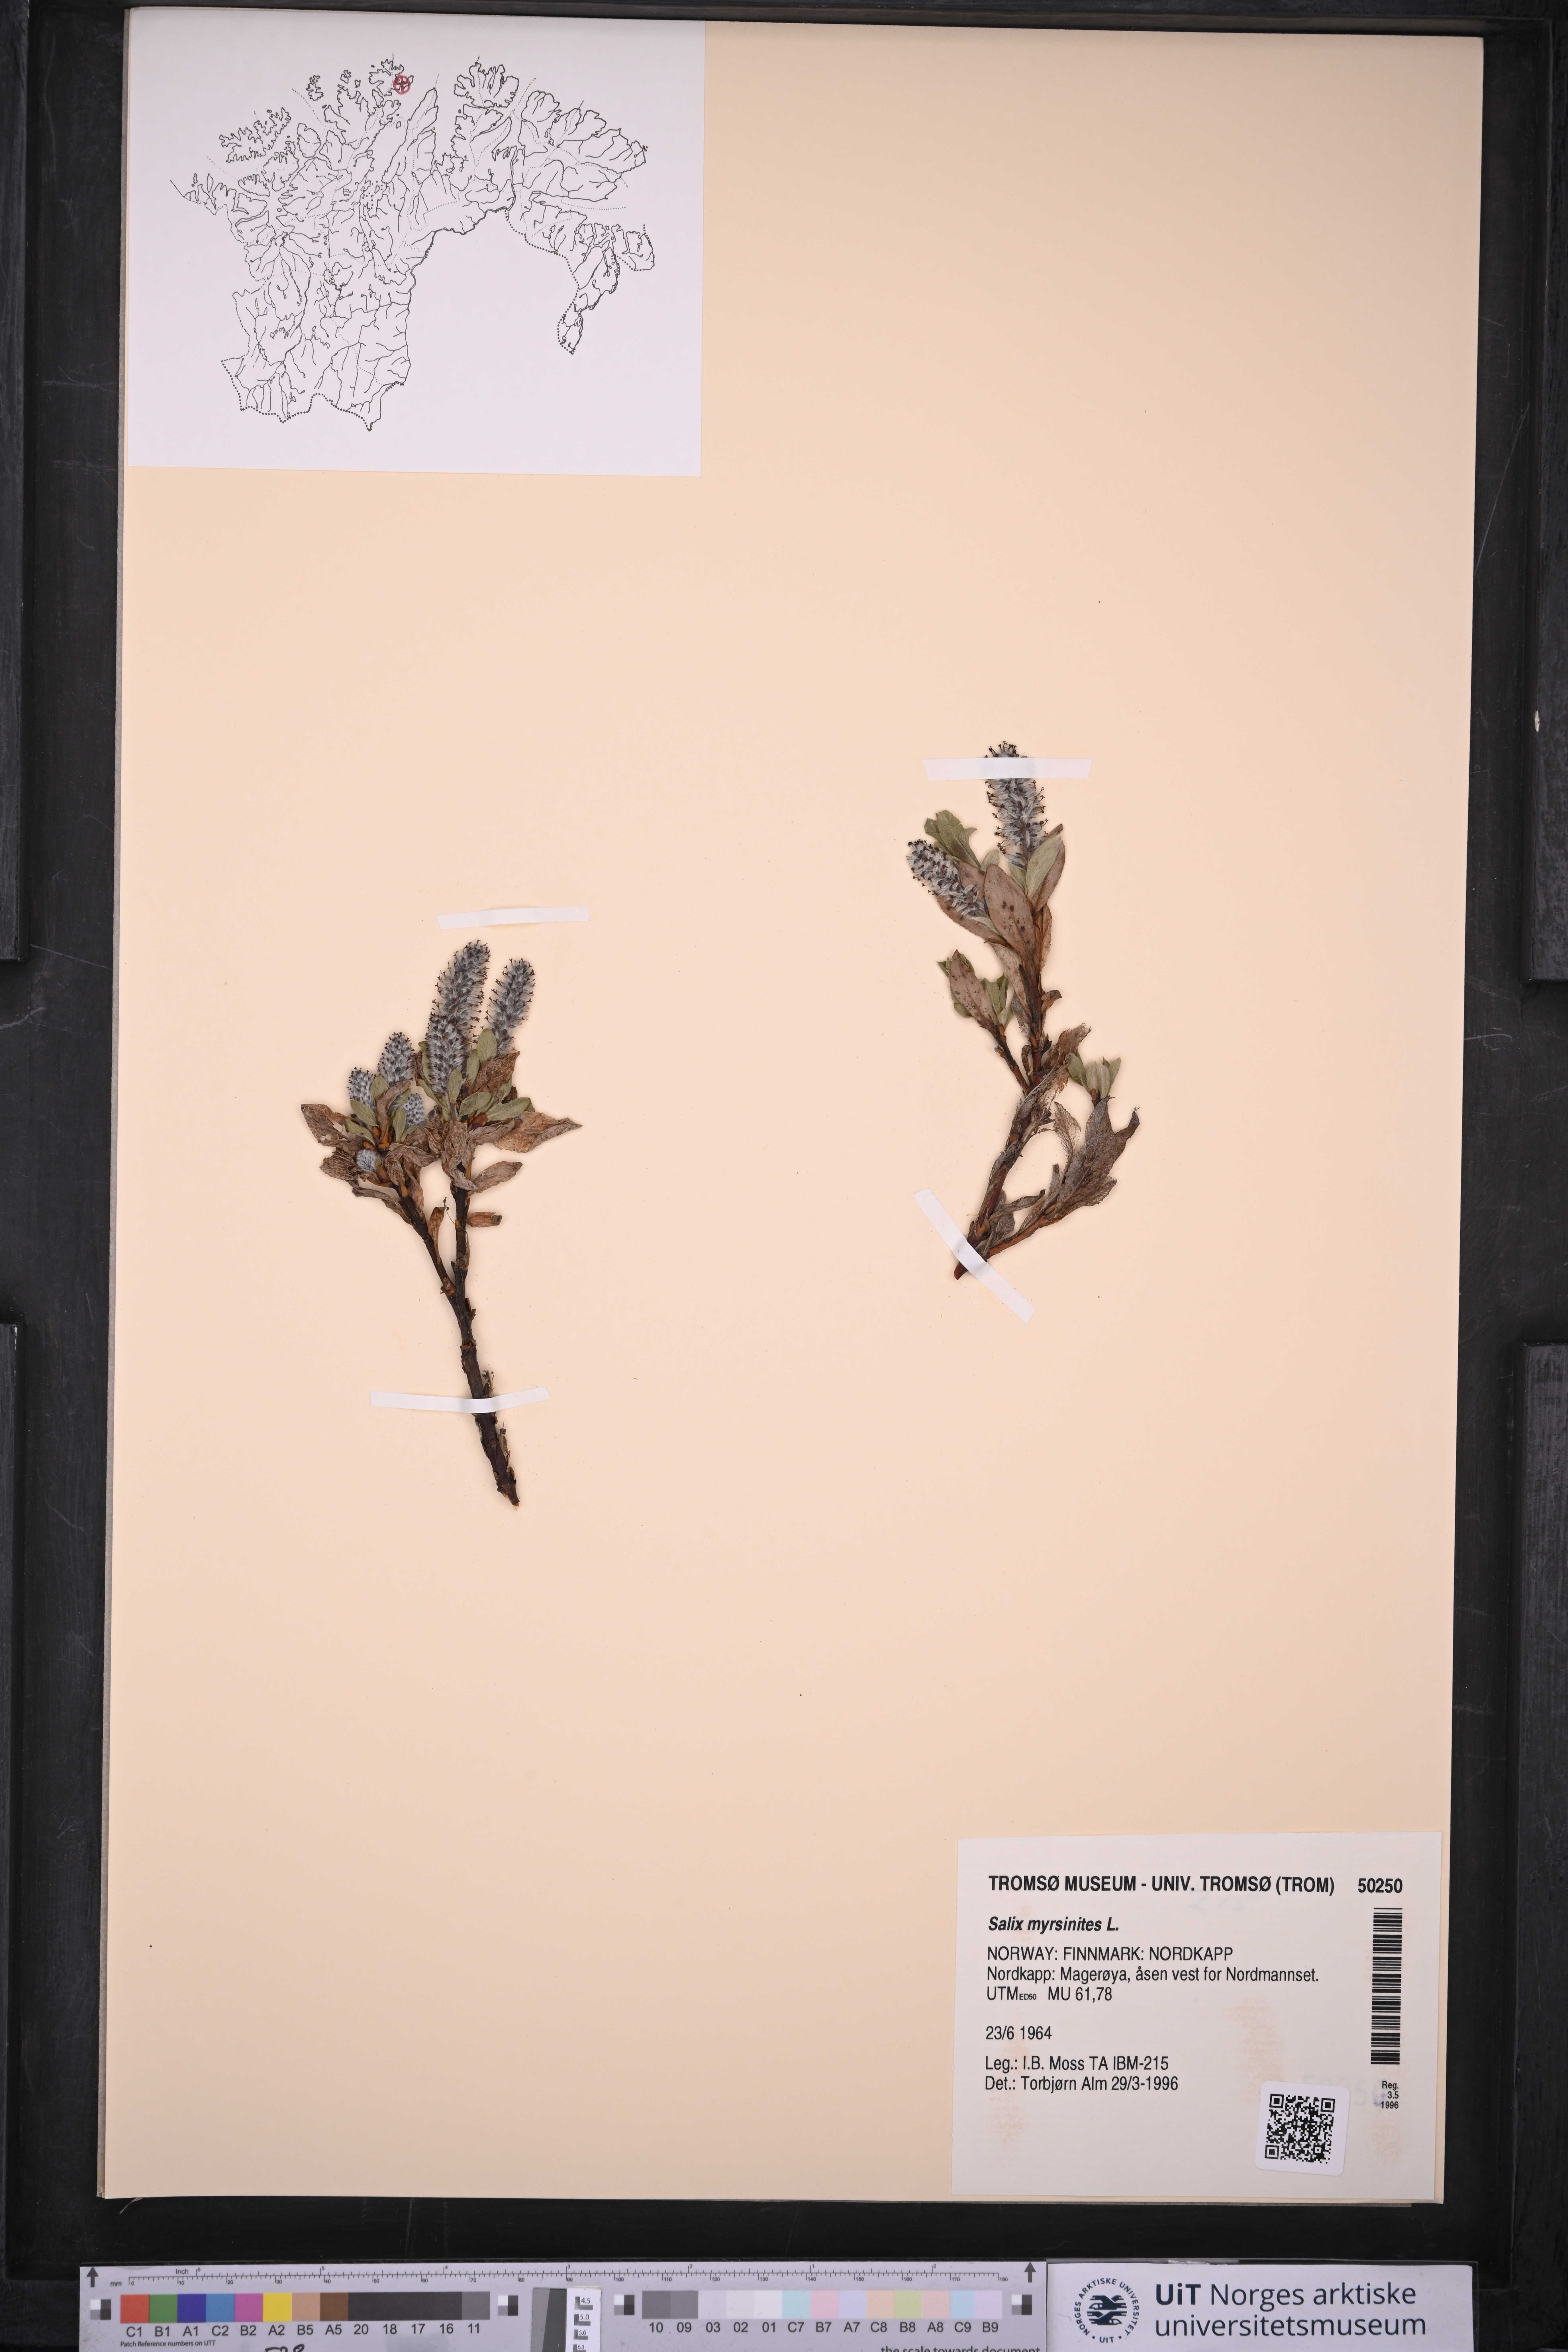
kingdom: Plantae
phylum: Tracheophyta
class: Magnoliopsida
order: Malpighiales
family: Salicaceae
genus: Salix
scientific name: Salix myrsinites
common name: Myrtle willow
